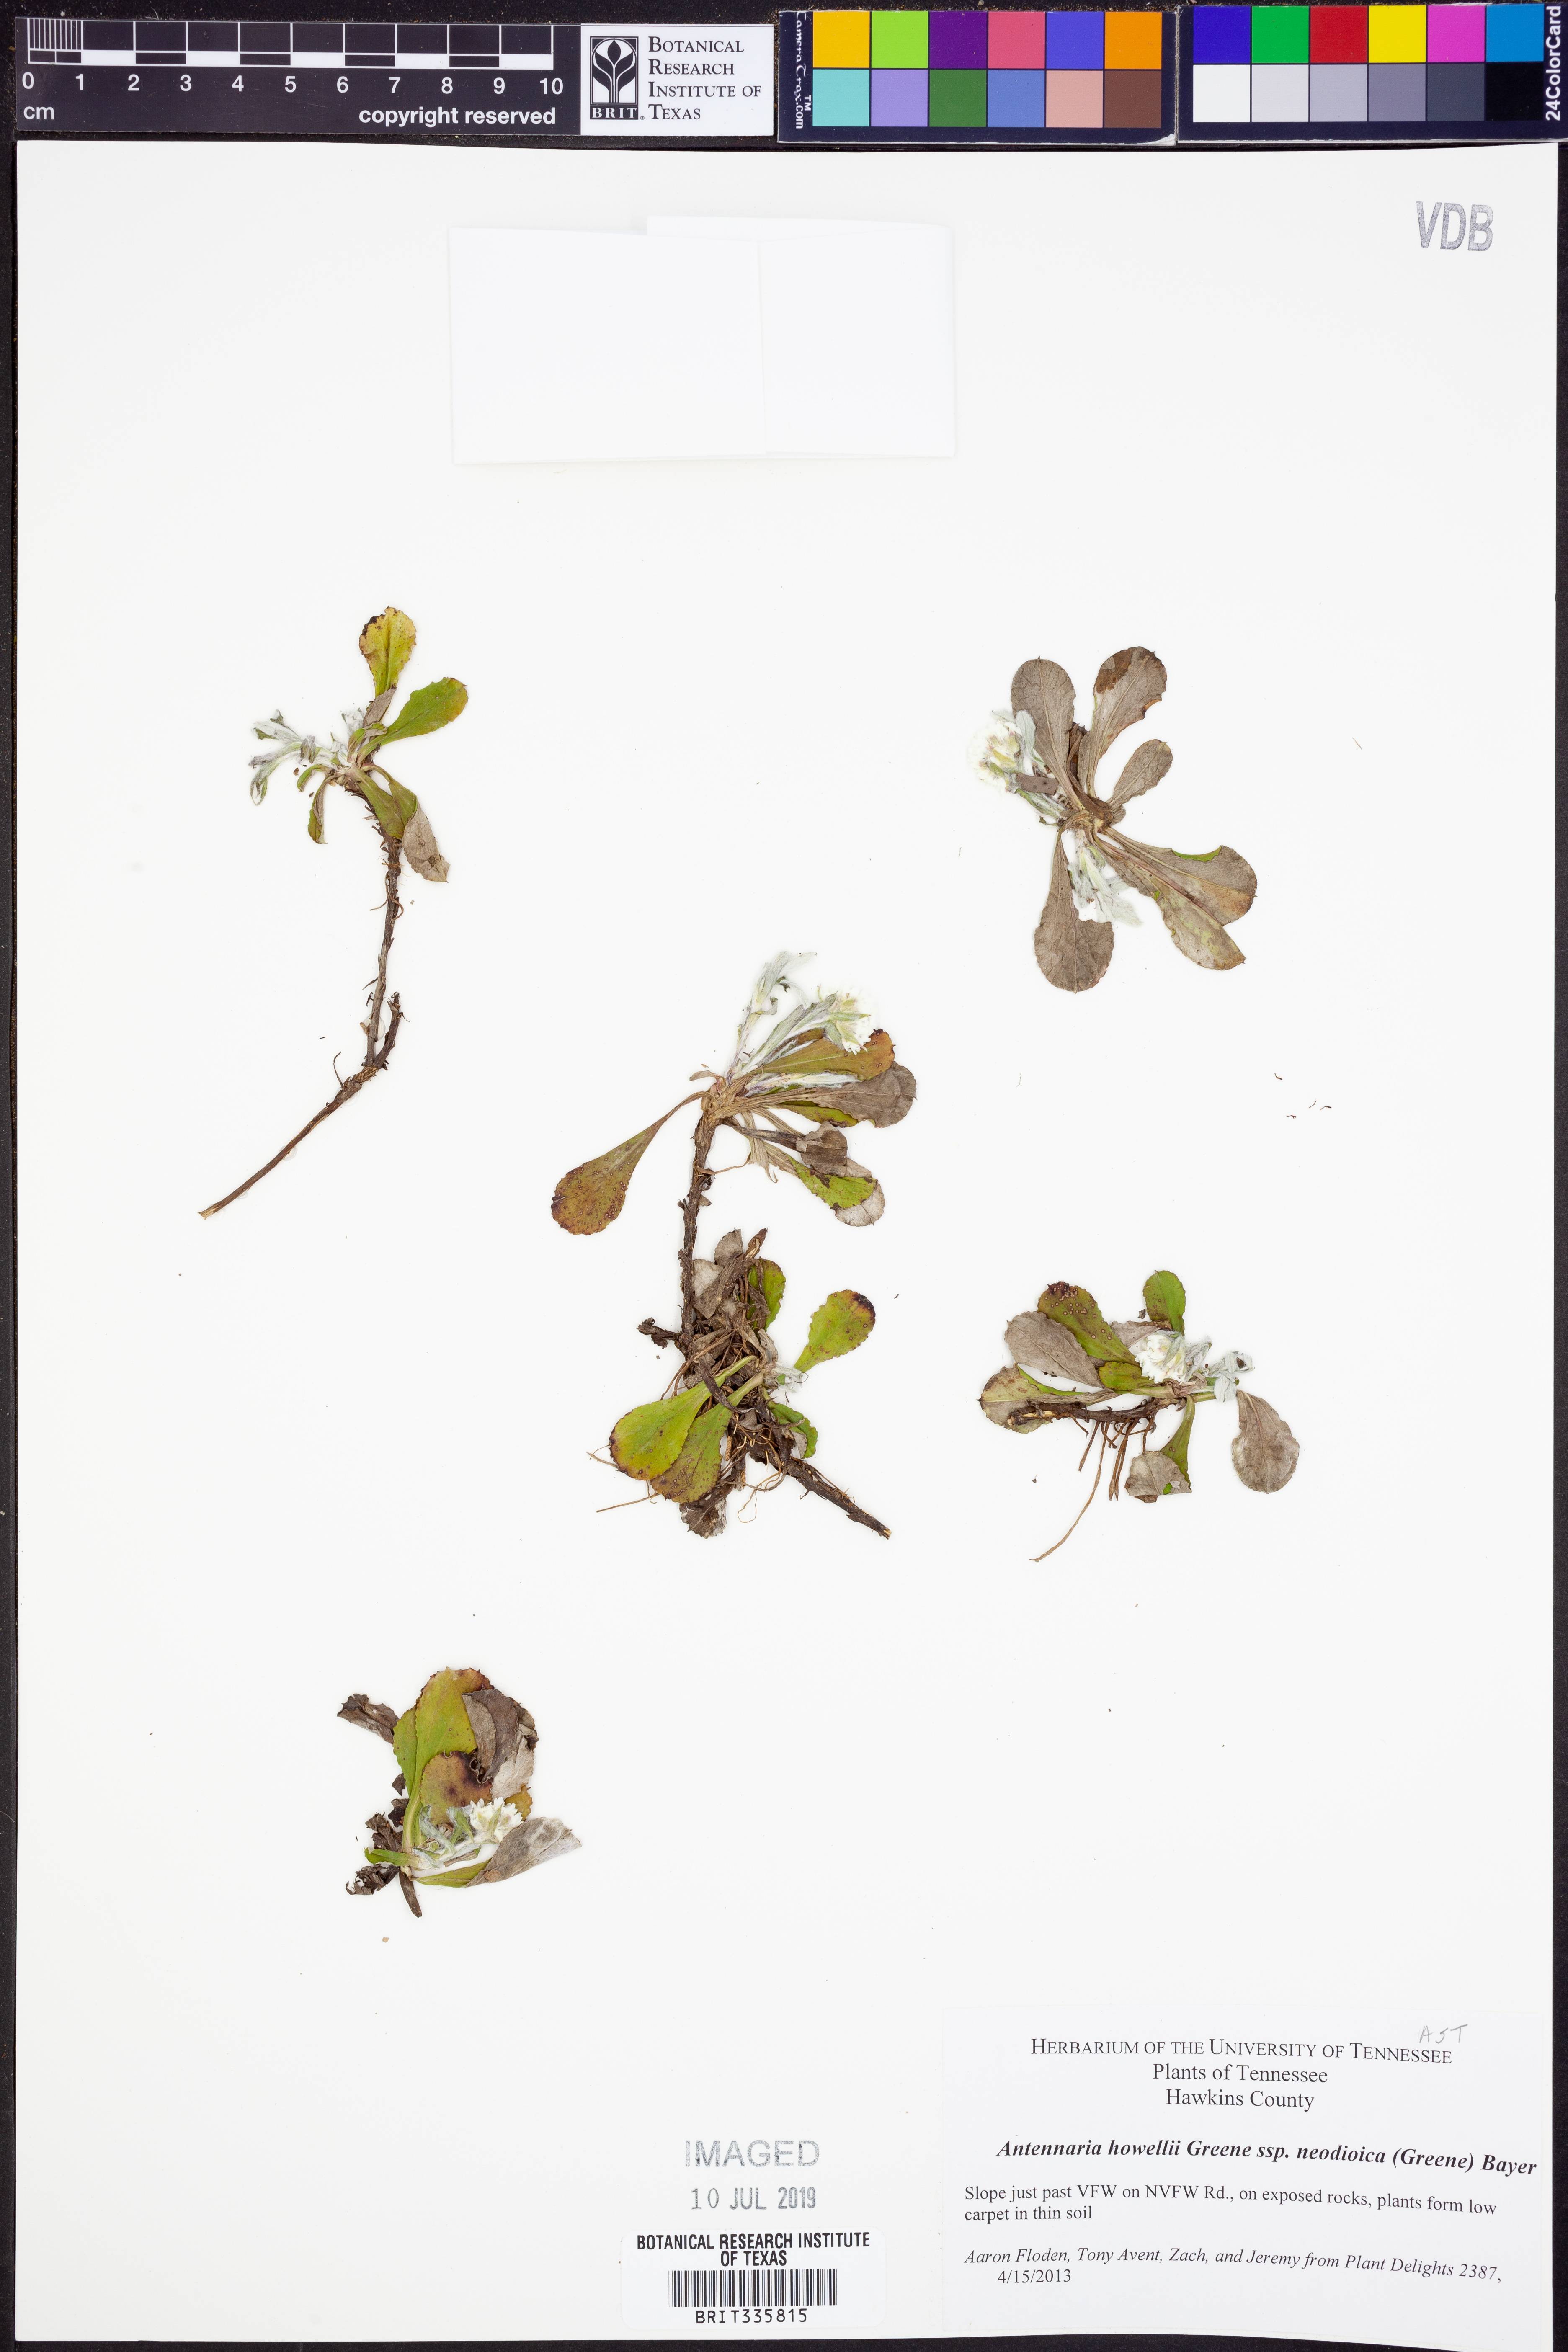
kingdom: Plantae
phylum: Tracheophyta
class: Magnoliopsida
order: Asterales
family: Asteraceae
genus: Antennaria
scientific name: Antennaria howellii
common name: Howell's pussytoes
